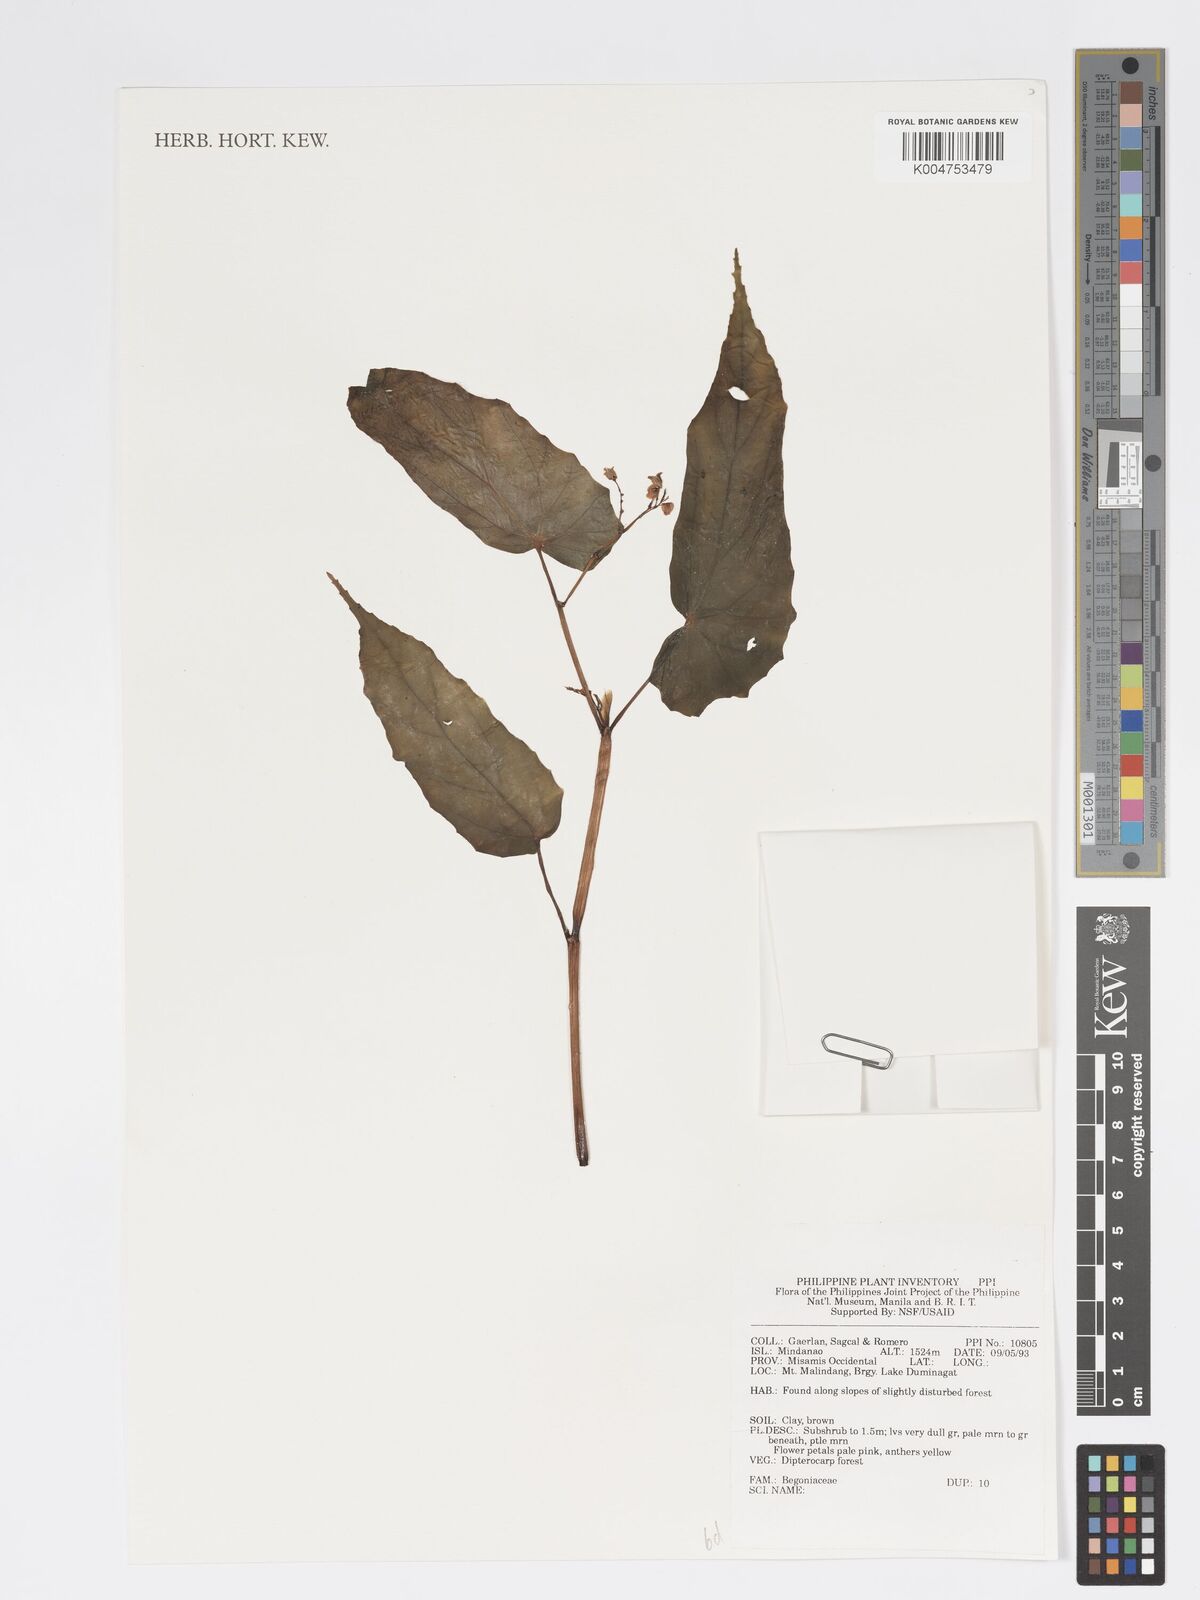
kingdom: Plantae
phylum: Tracheophyta
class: Magnoliopsida
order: Cucurbitales
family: Begoniaceae
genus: Begonia
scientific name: Begonia
